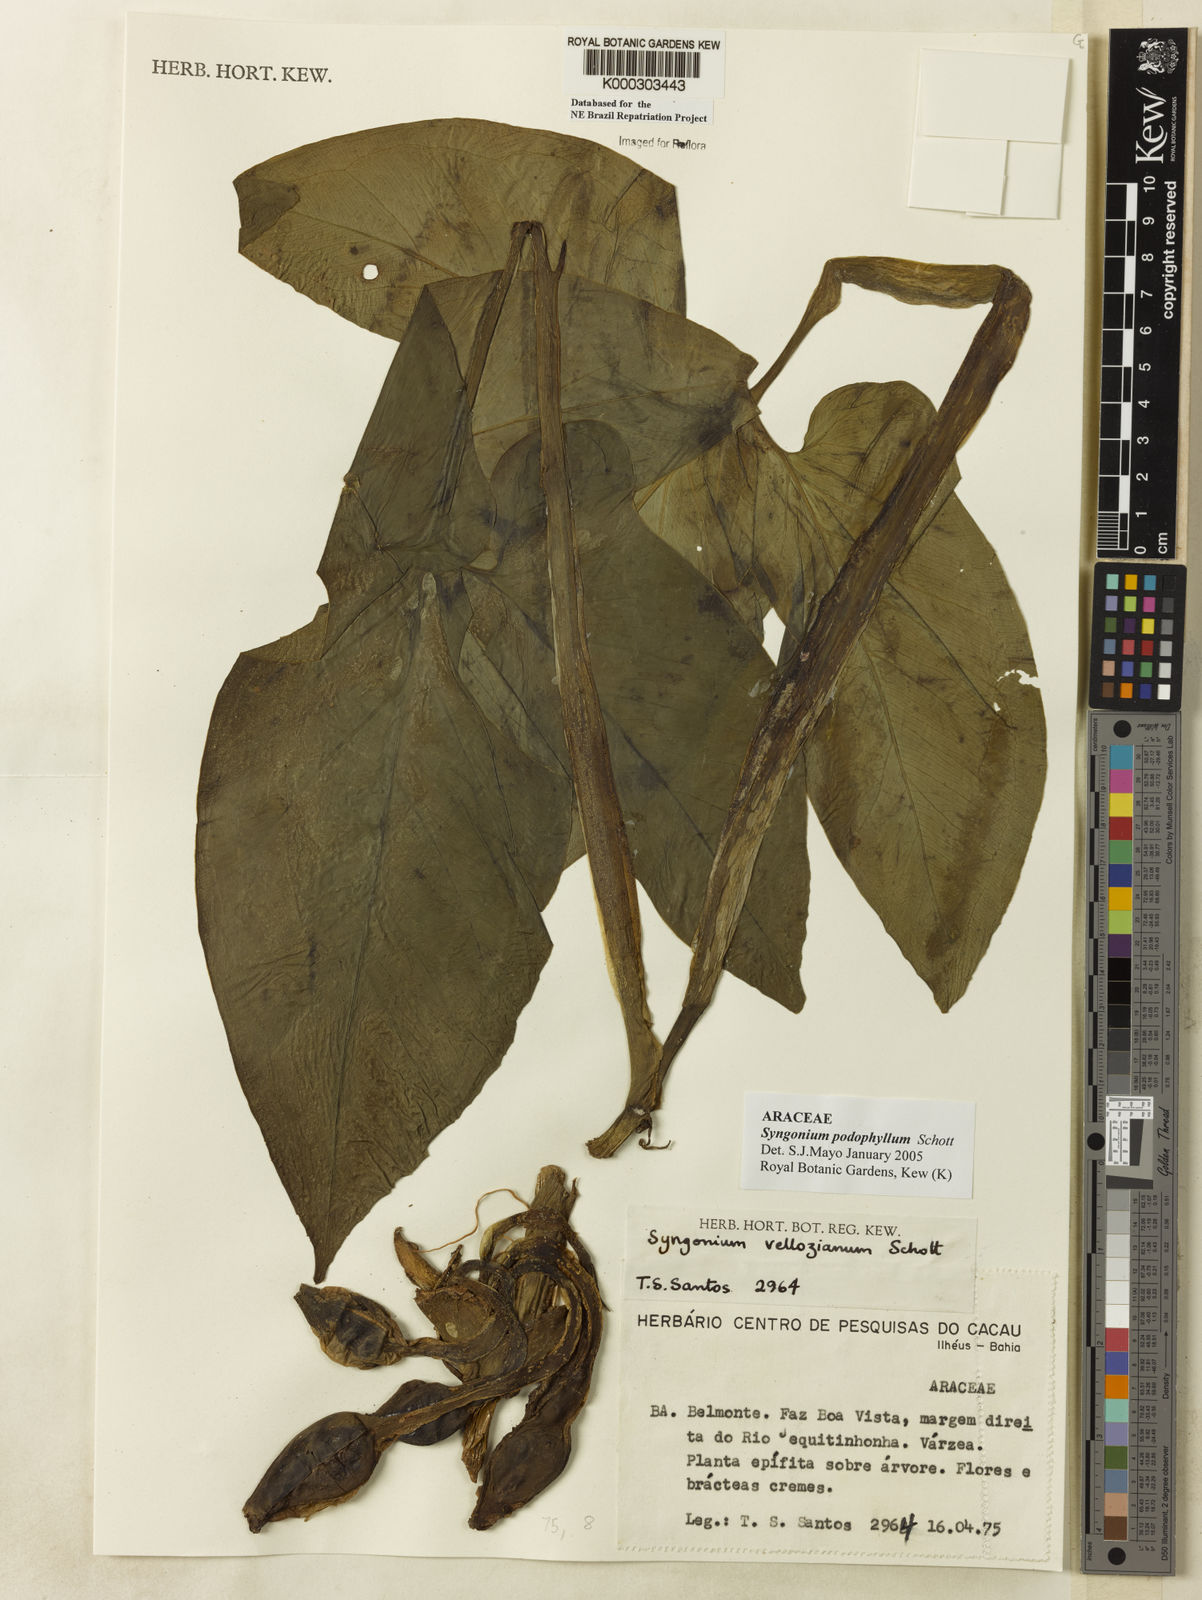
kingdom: Plantae
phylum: Tracheophyta
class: Liliopsida
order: Alismatales
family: Araceae
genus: Syngonium
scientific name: Syngonium podophyllum
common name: American evergreen
